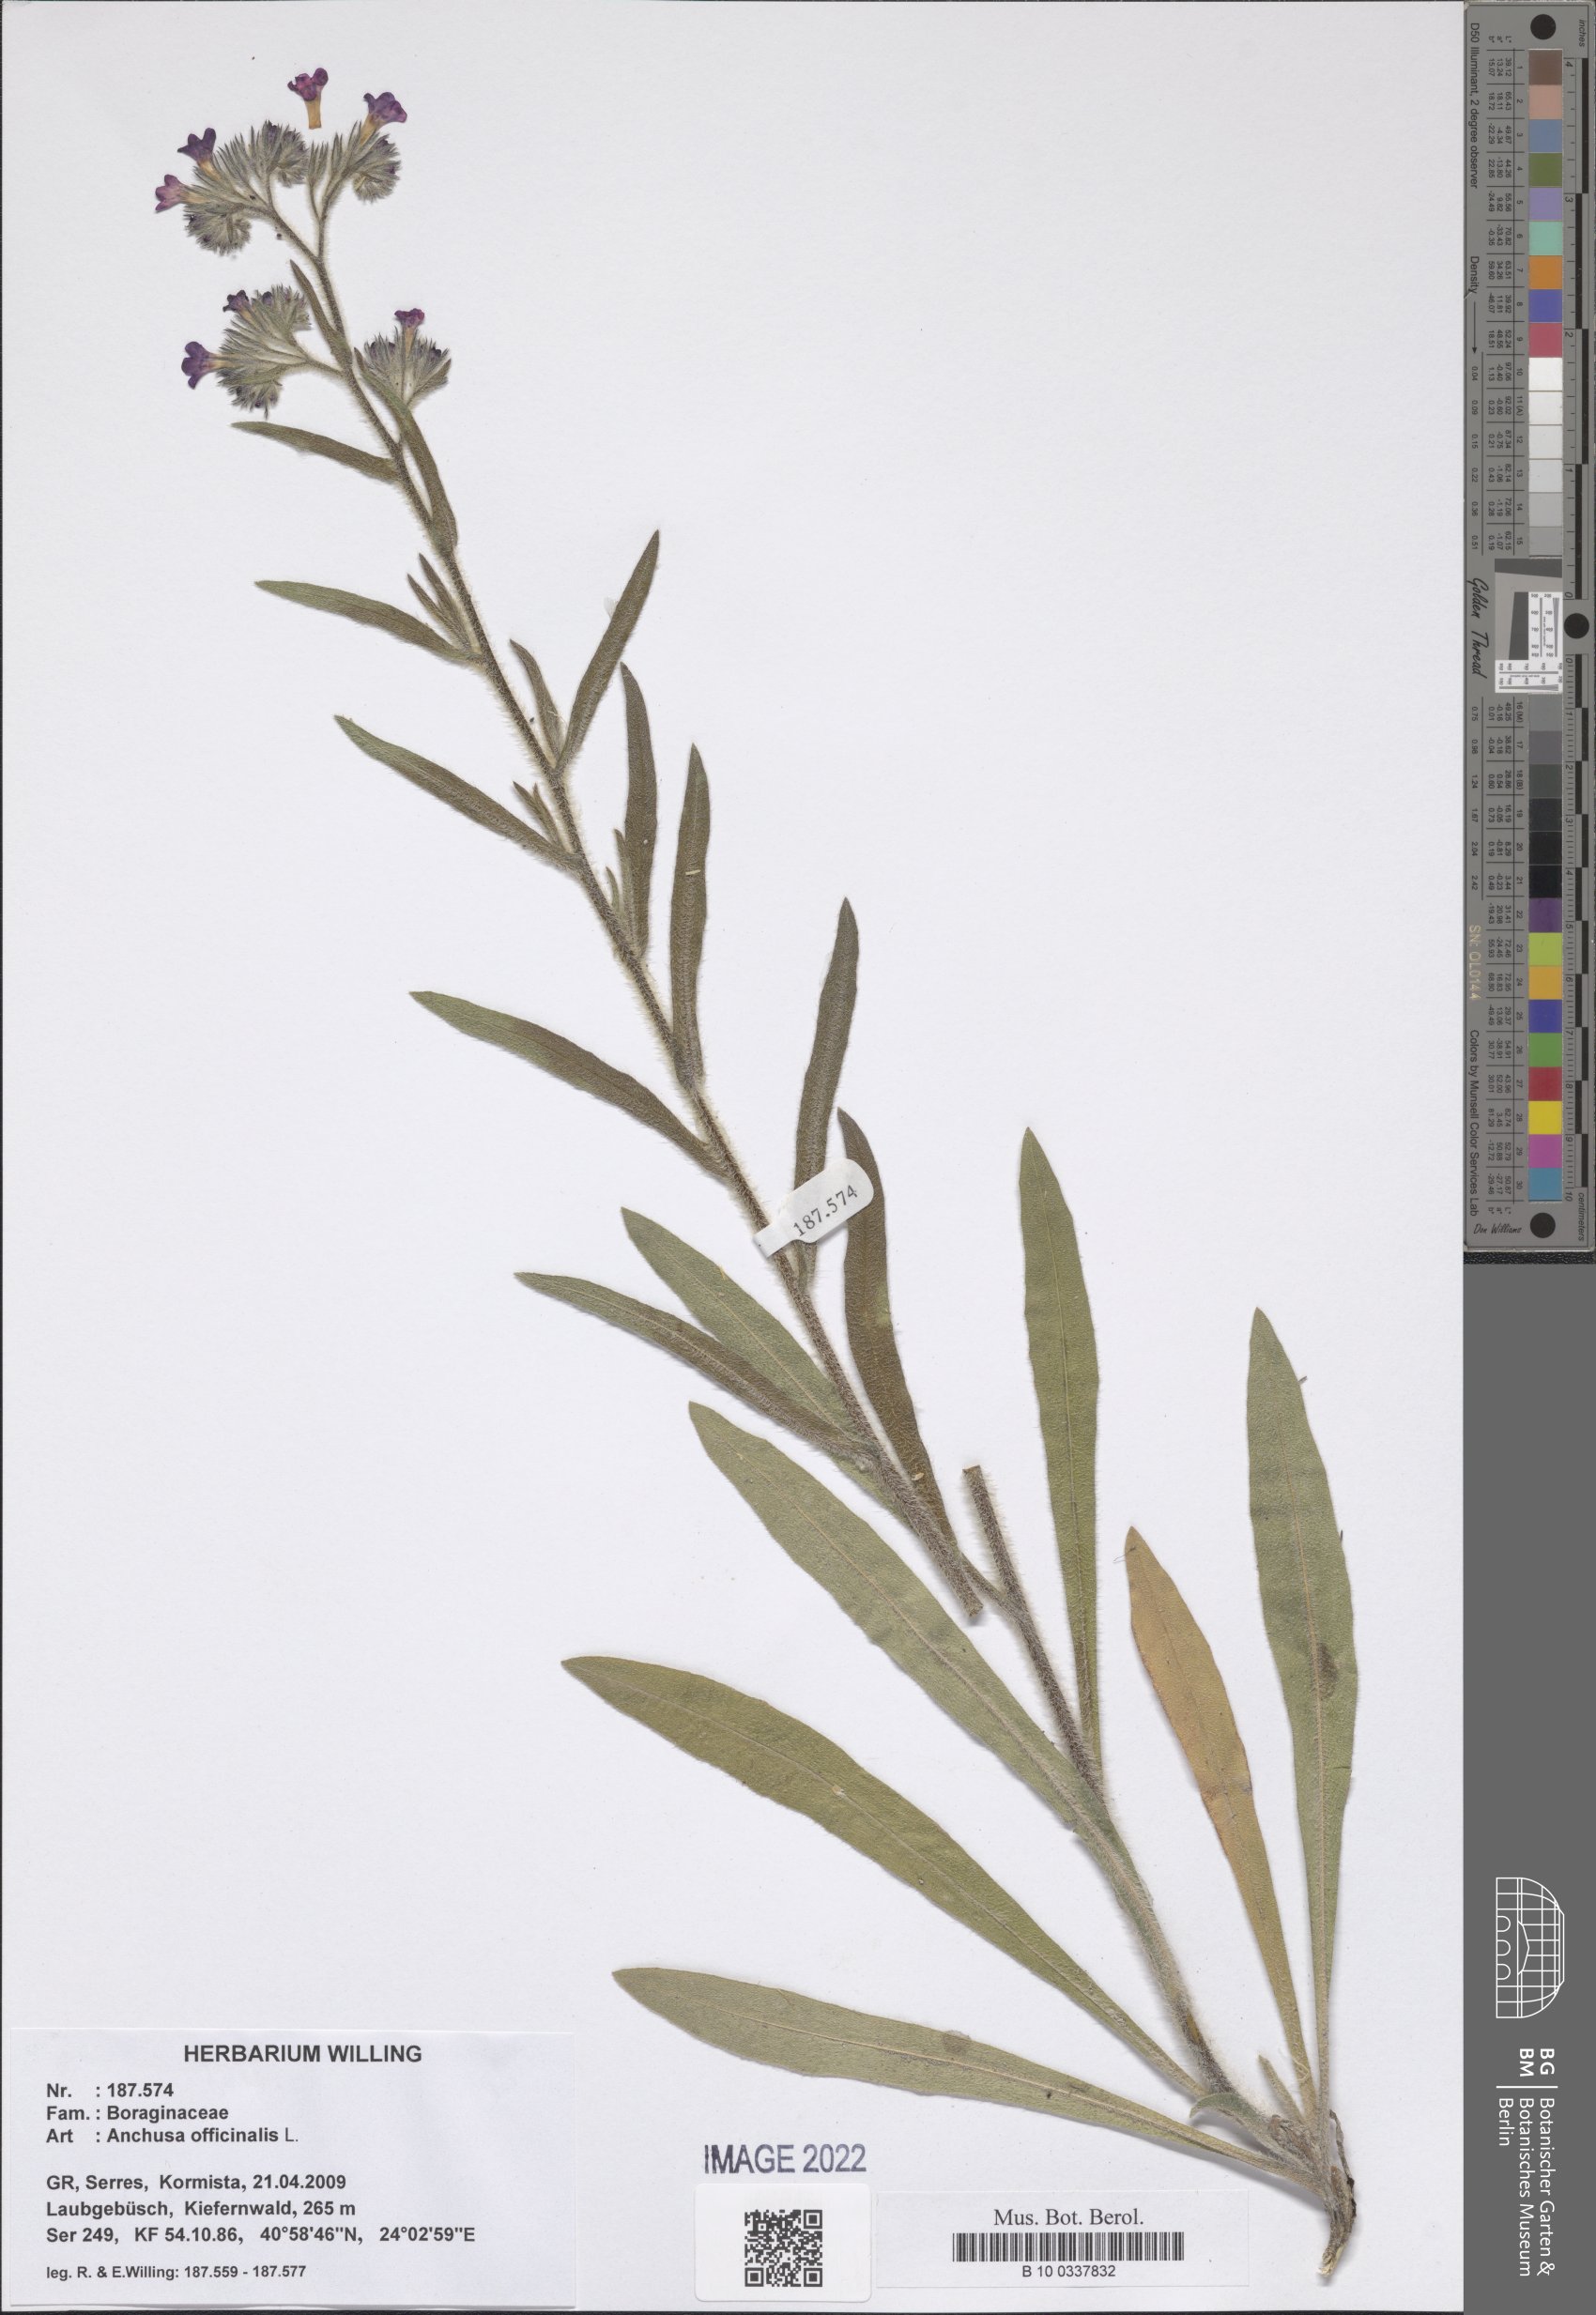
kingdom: Plantae
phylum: Tracheophyta
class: Magnoliopsida
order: Boraginales
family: Boraginaceae
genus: Anchusa
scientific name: Anchusa officinalis
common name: Alkanet
